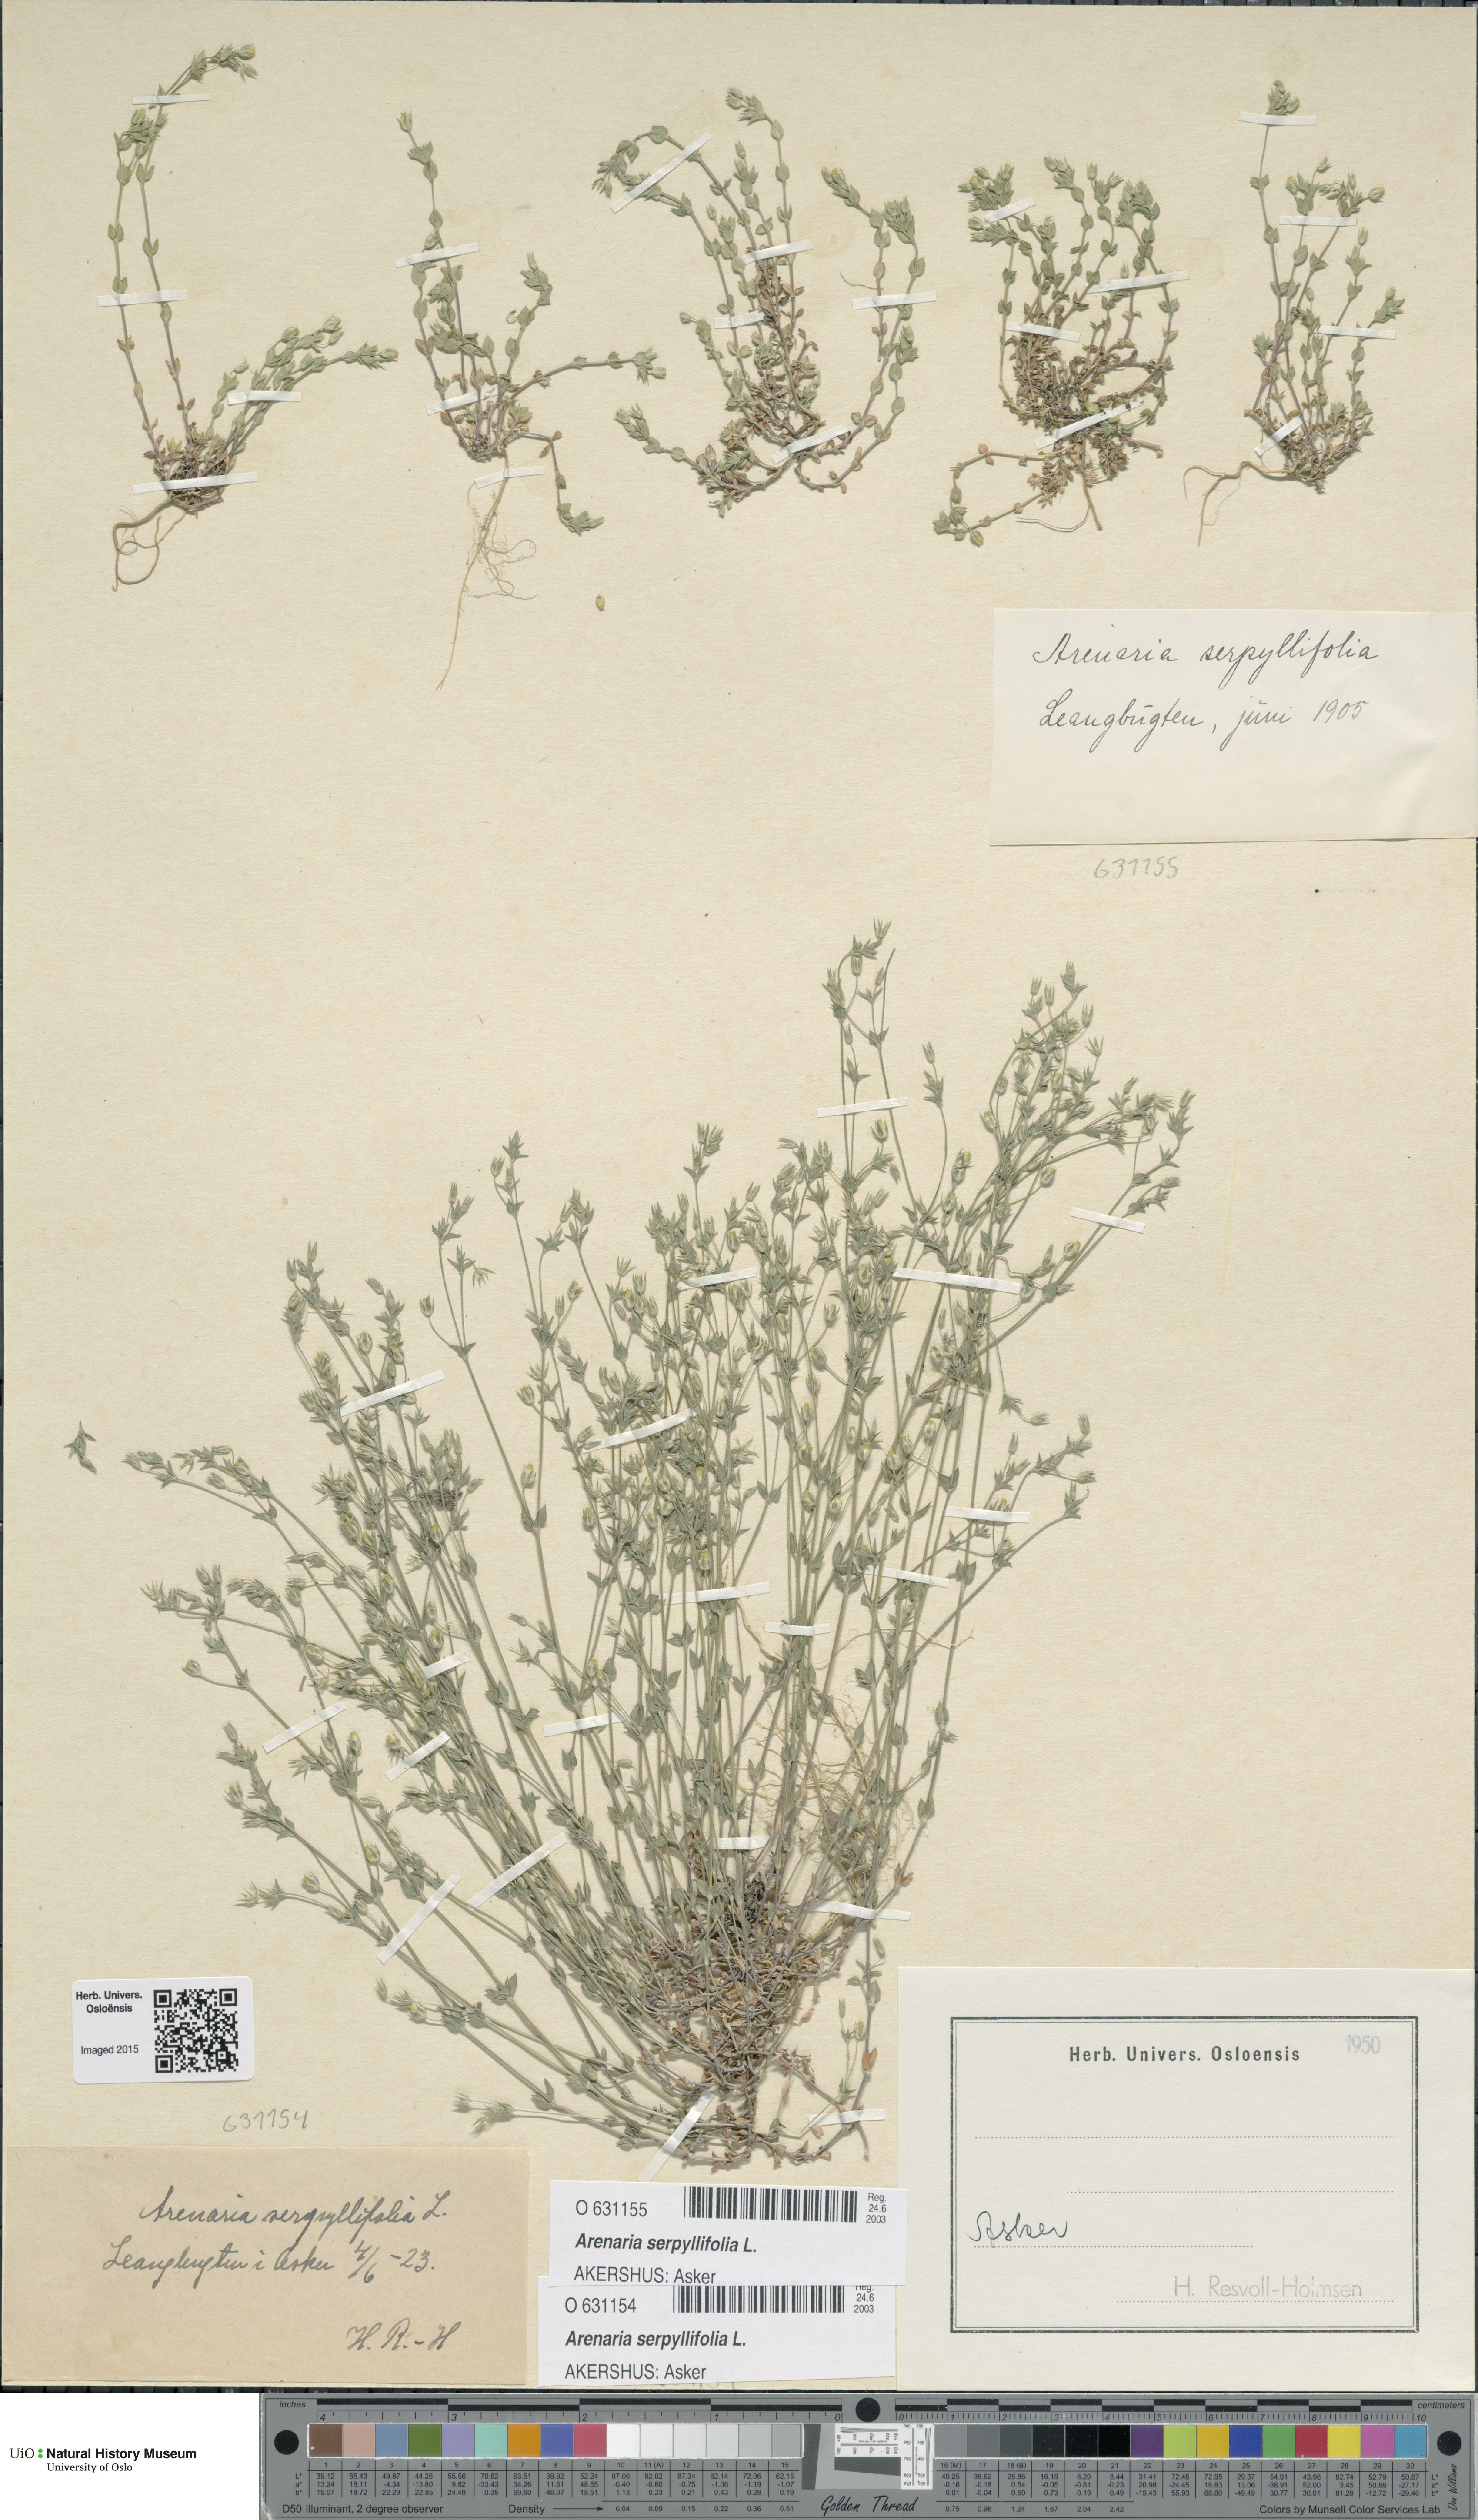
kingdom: Plantae
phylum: Tracheophyta
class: Magnoliopsida
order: Caryophyllales
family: Caryophyllaceae
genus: Arenaria
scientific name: Arenaria serpyllifolia
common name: Thyme-leaved sandwort
